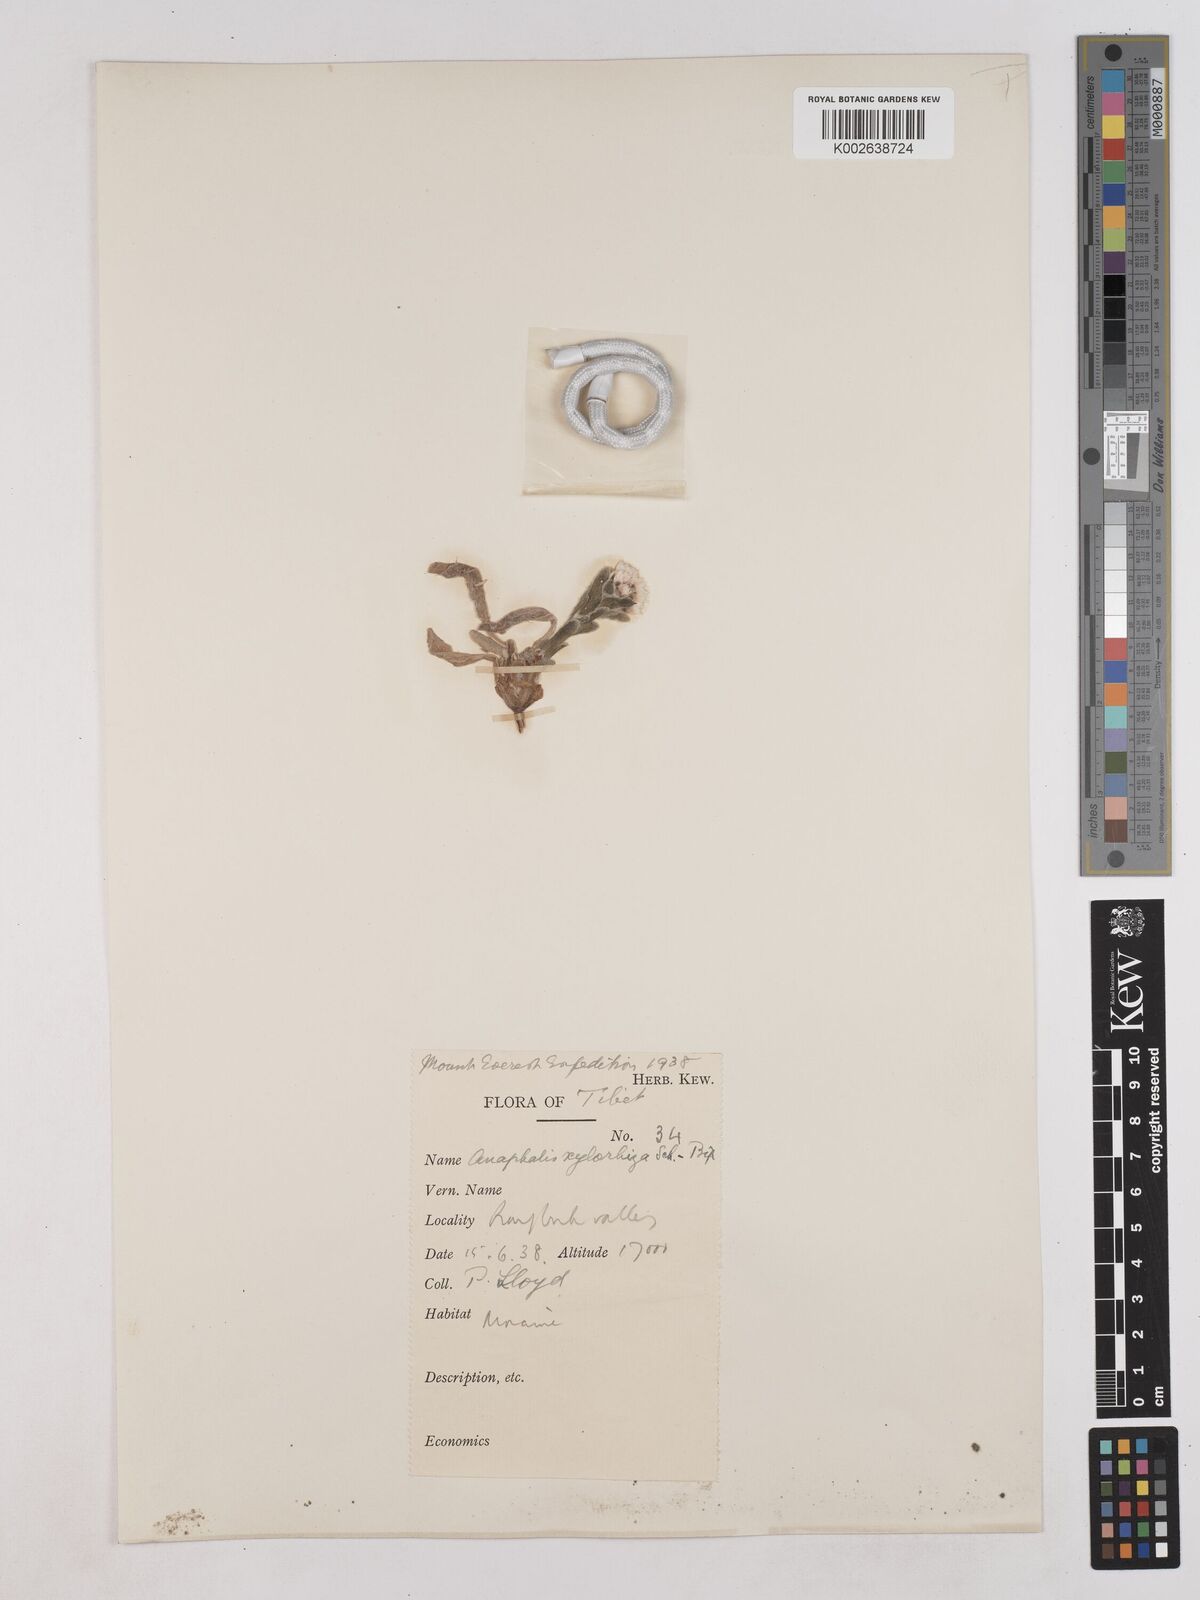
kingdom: Plantae
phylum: Tracheophyta
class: Magnoliopsida
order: Asterales
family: Asteraceae
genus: Anaphalis
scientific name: Anaphalis xylorhiza
